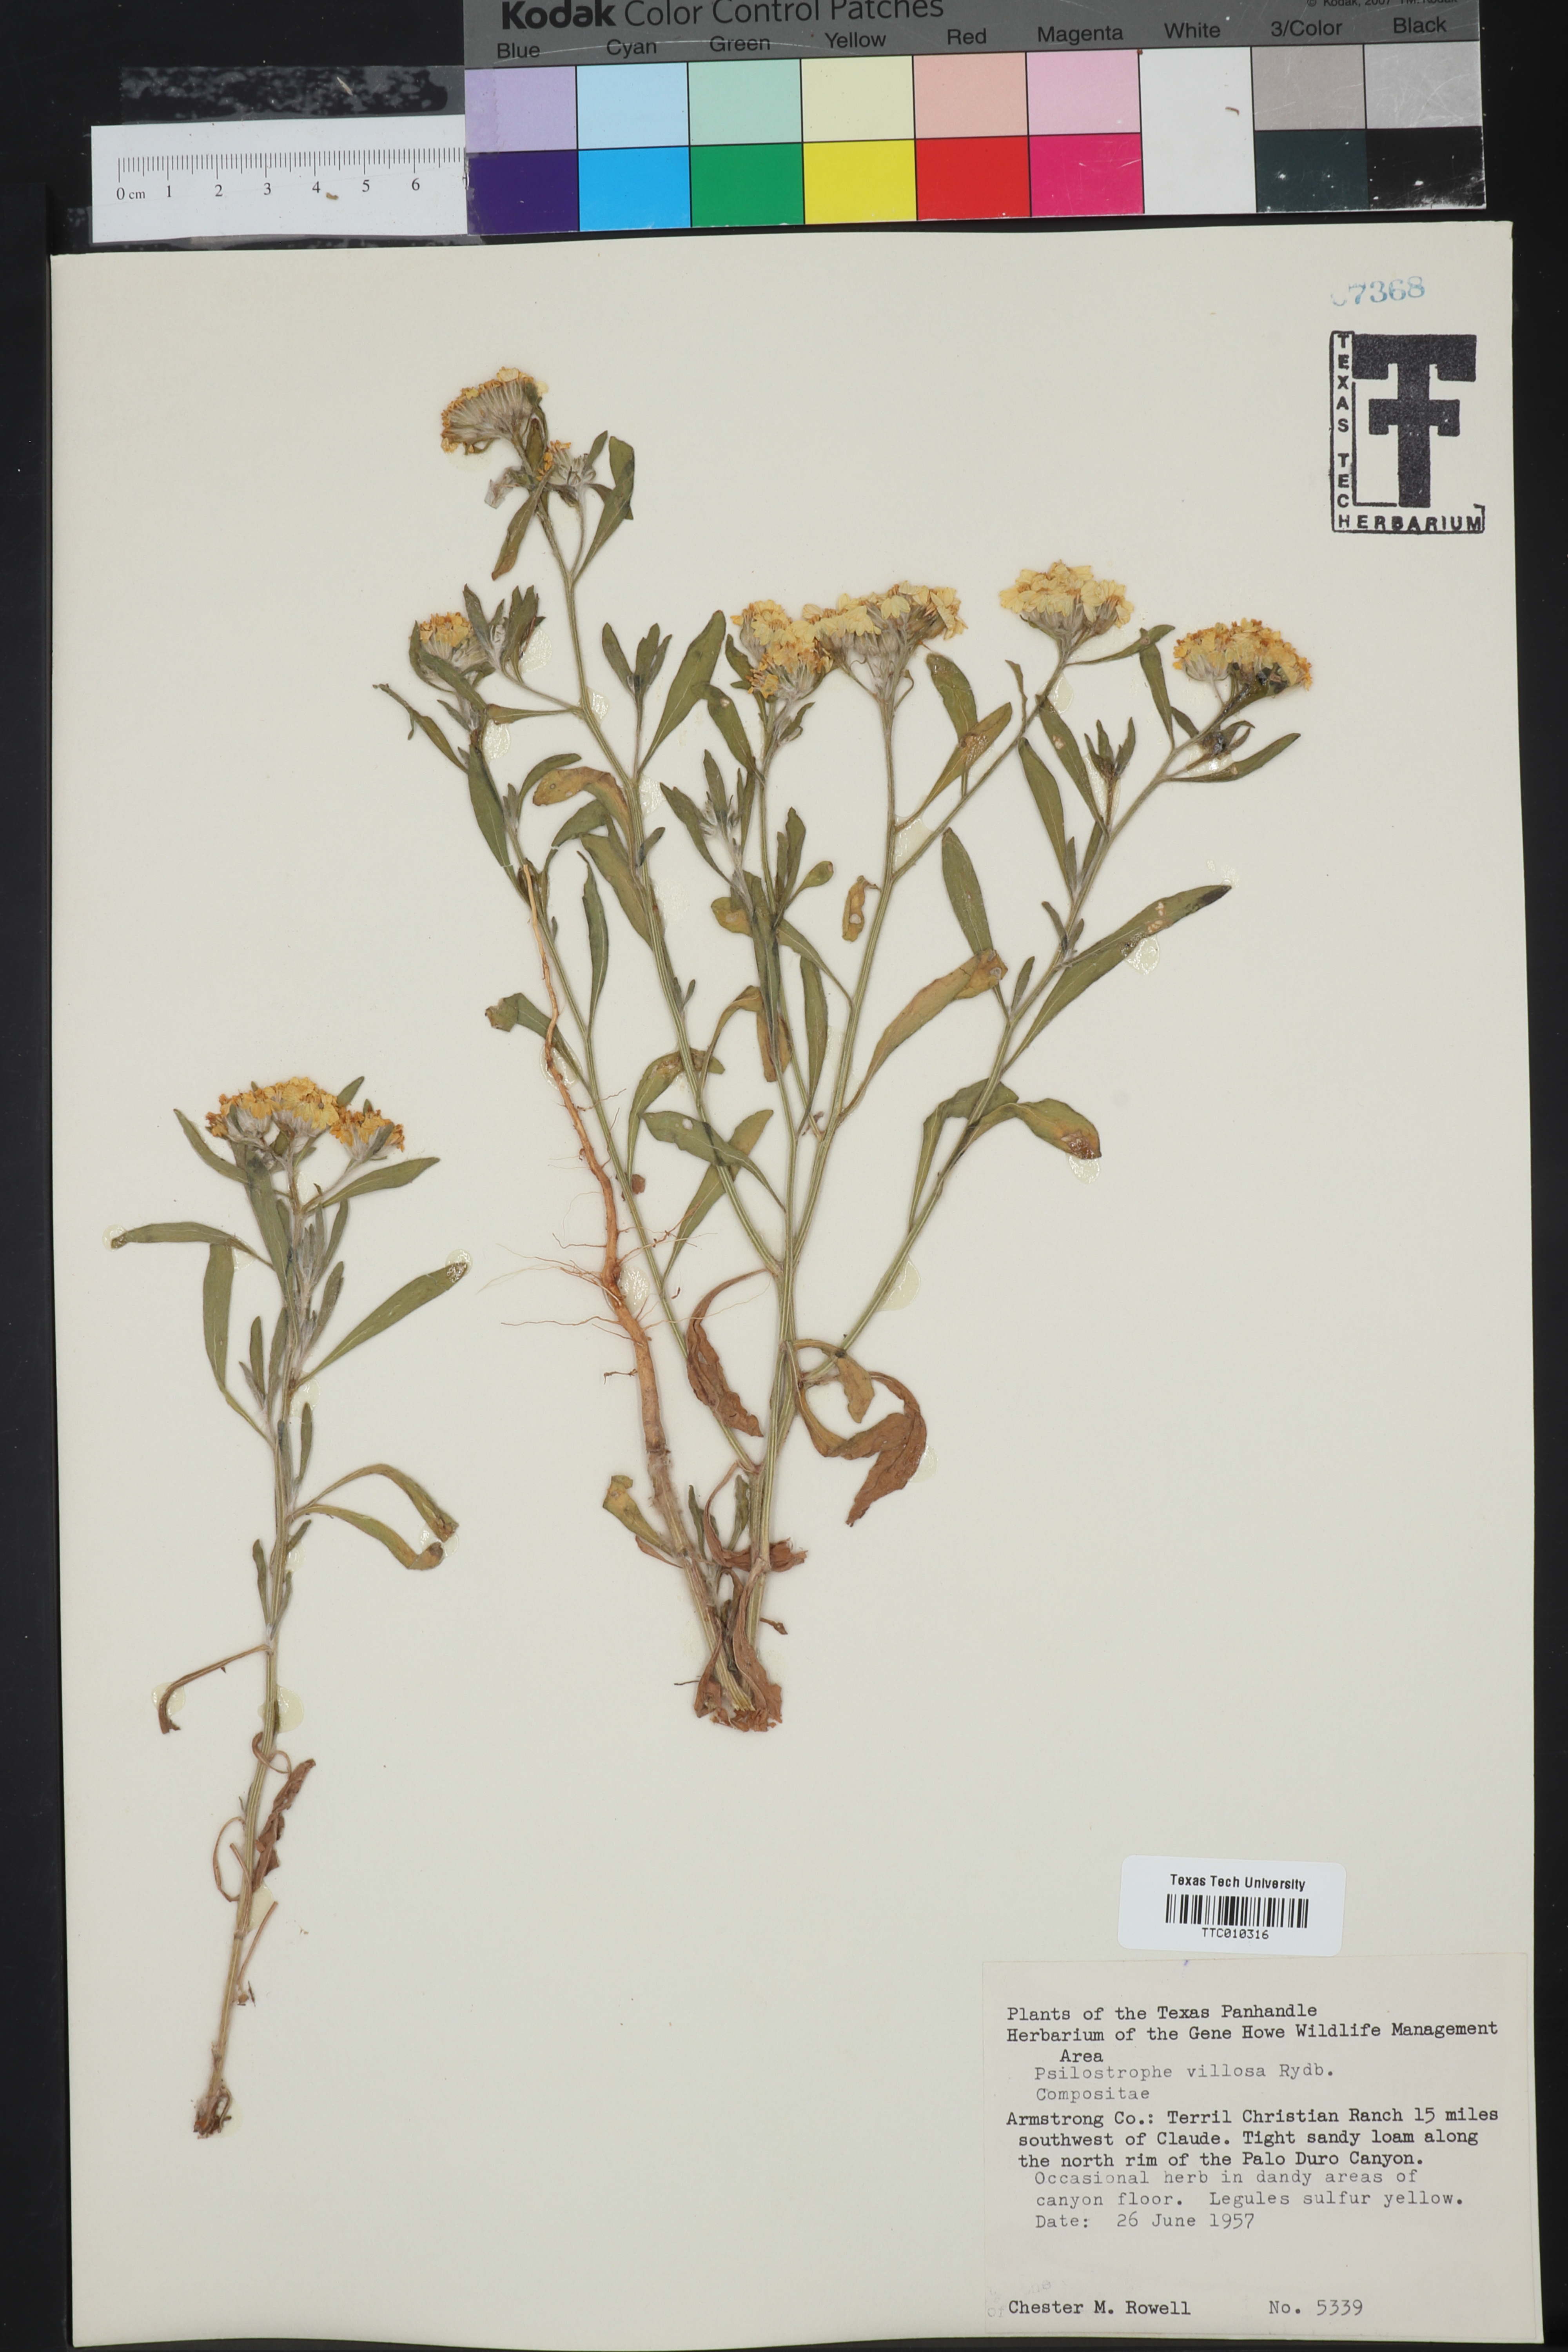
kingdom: Plantae
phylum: Tracheophyta
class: Magnoliopsida
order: Asterales
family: Asteraceae
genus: Psilostrophe
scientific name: Psilostrophe villosa
